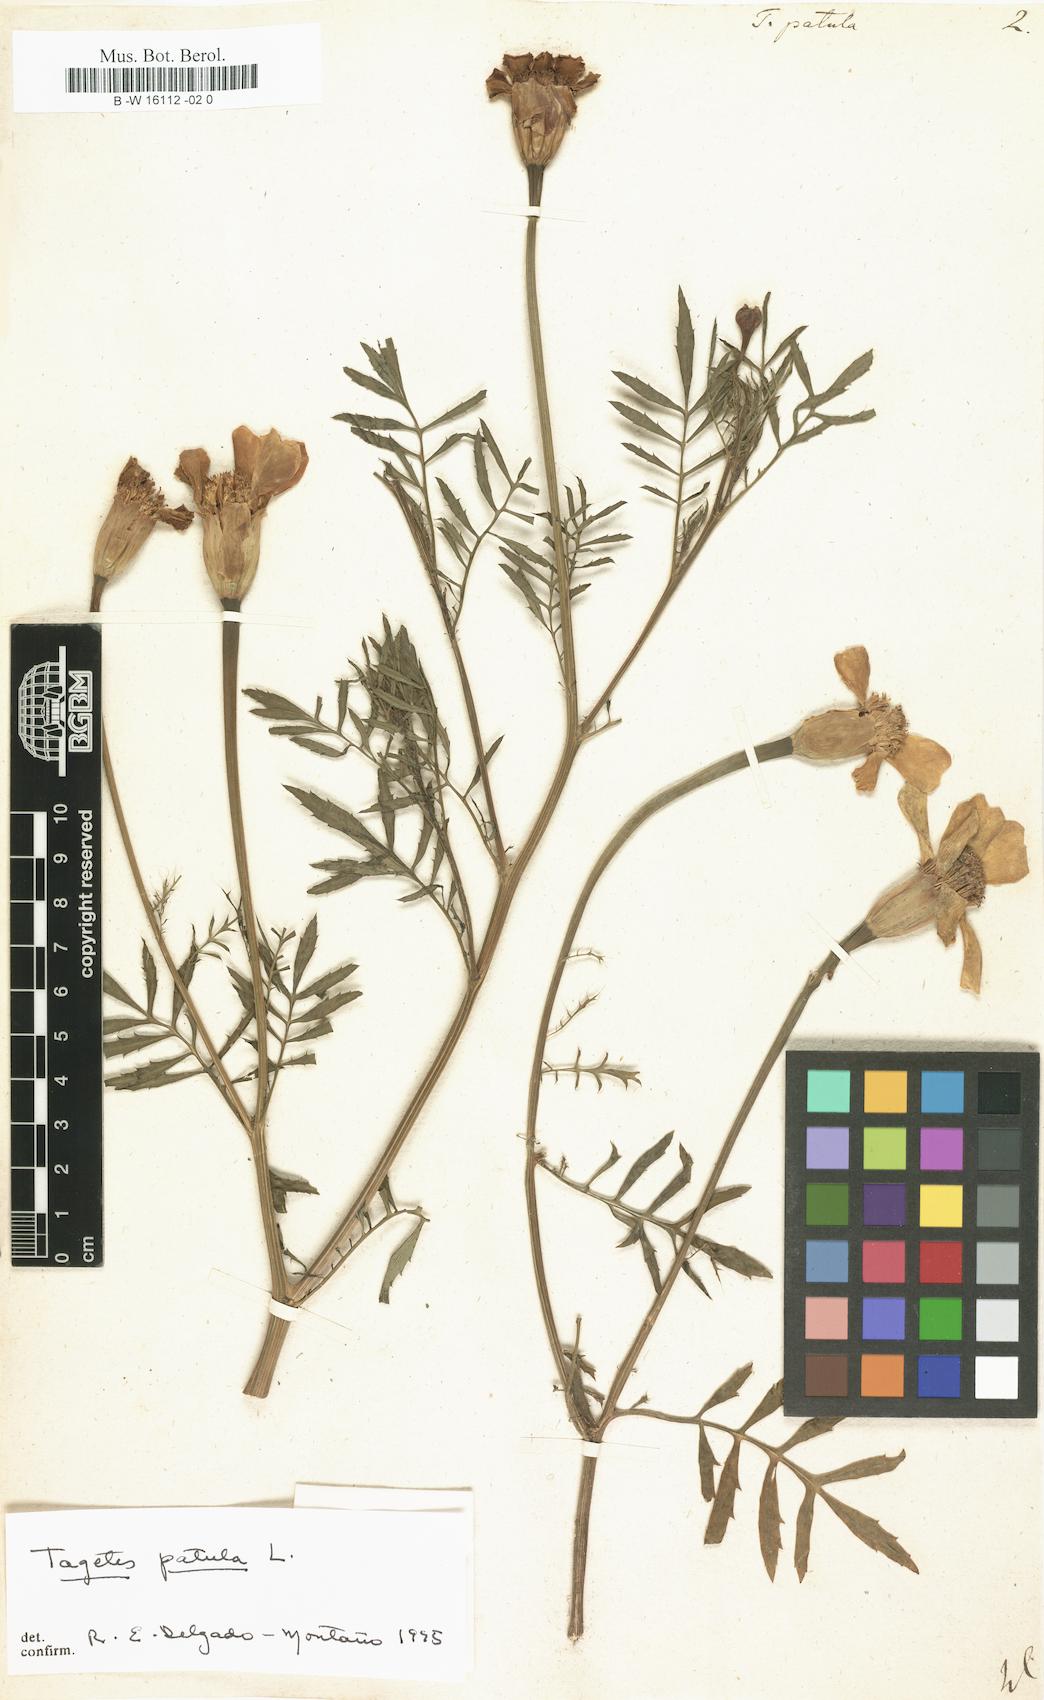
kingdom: Plantae
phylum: Tracheophyta
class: Magnoliopsida
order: Asterales
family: Asteraceae
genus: Tagetes
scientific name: Tagetes erecta
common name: African marigold
